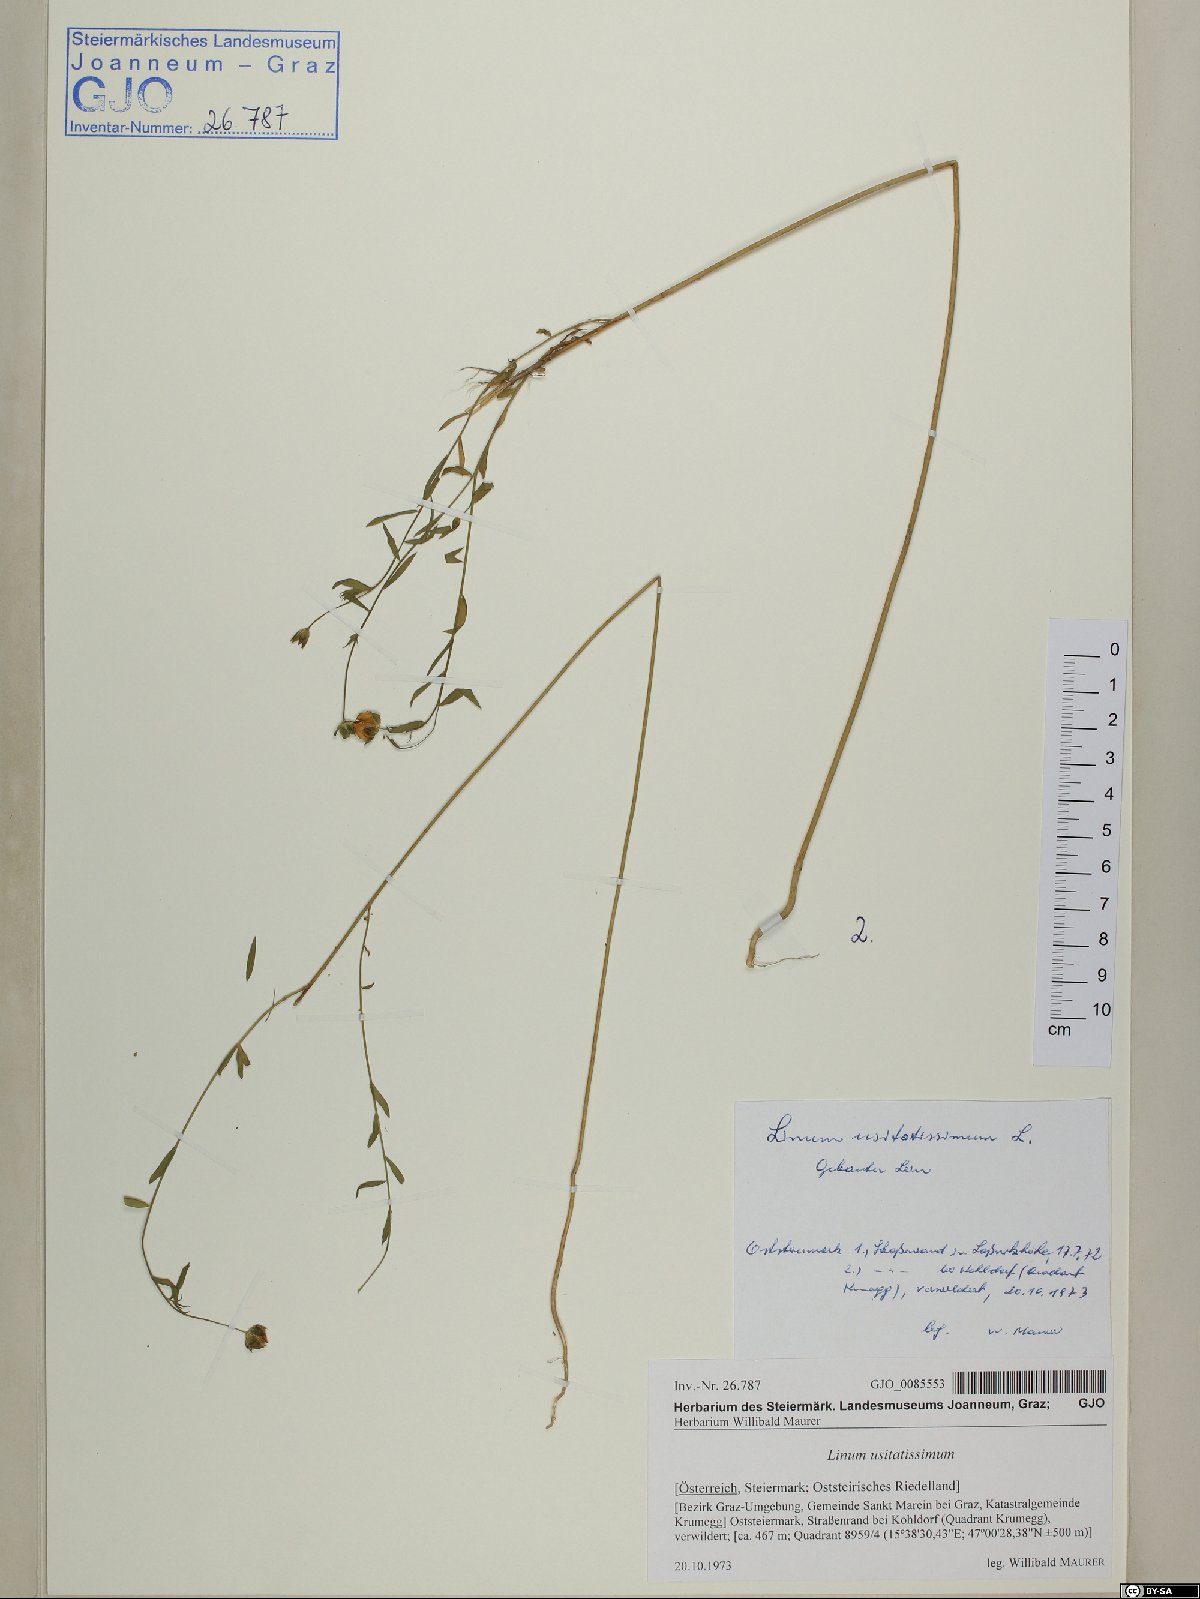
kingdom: Plantae
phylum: Tracheophyta
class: Magnoliopsida
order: Malpighiales
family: Linaceae
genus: Linum
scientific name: Linum usitatissimum
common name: Flax
